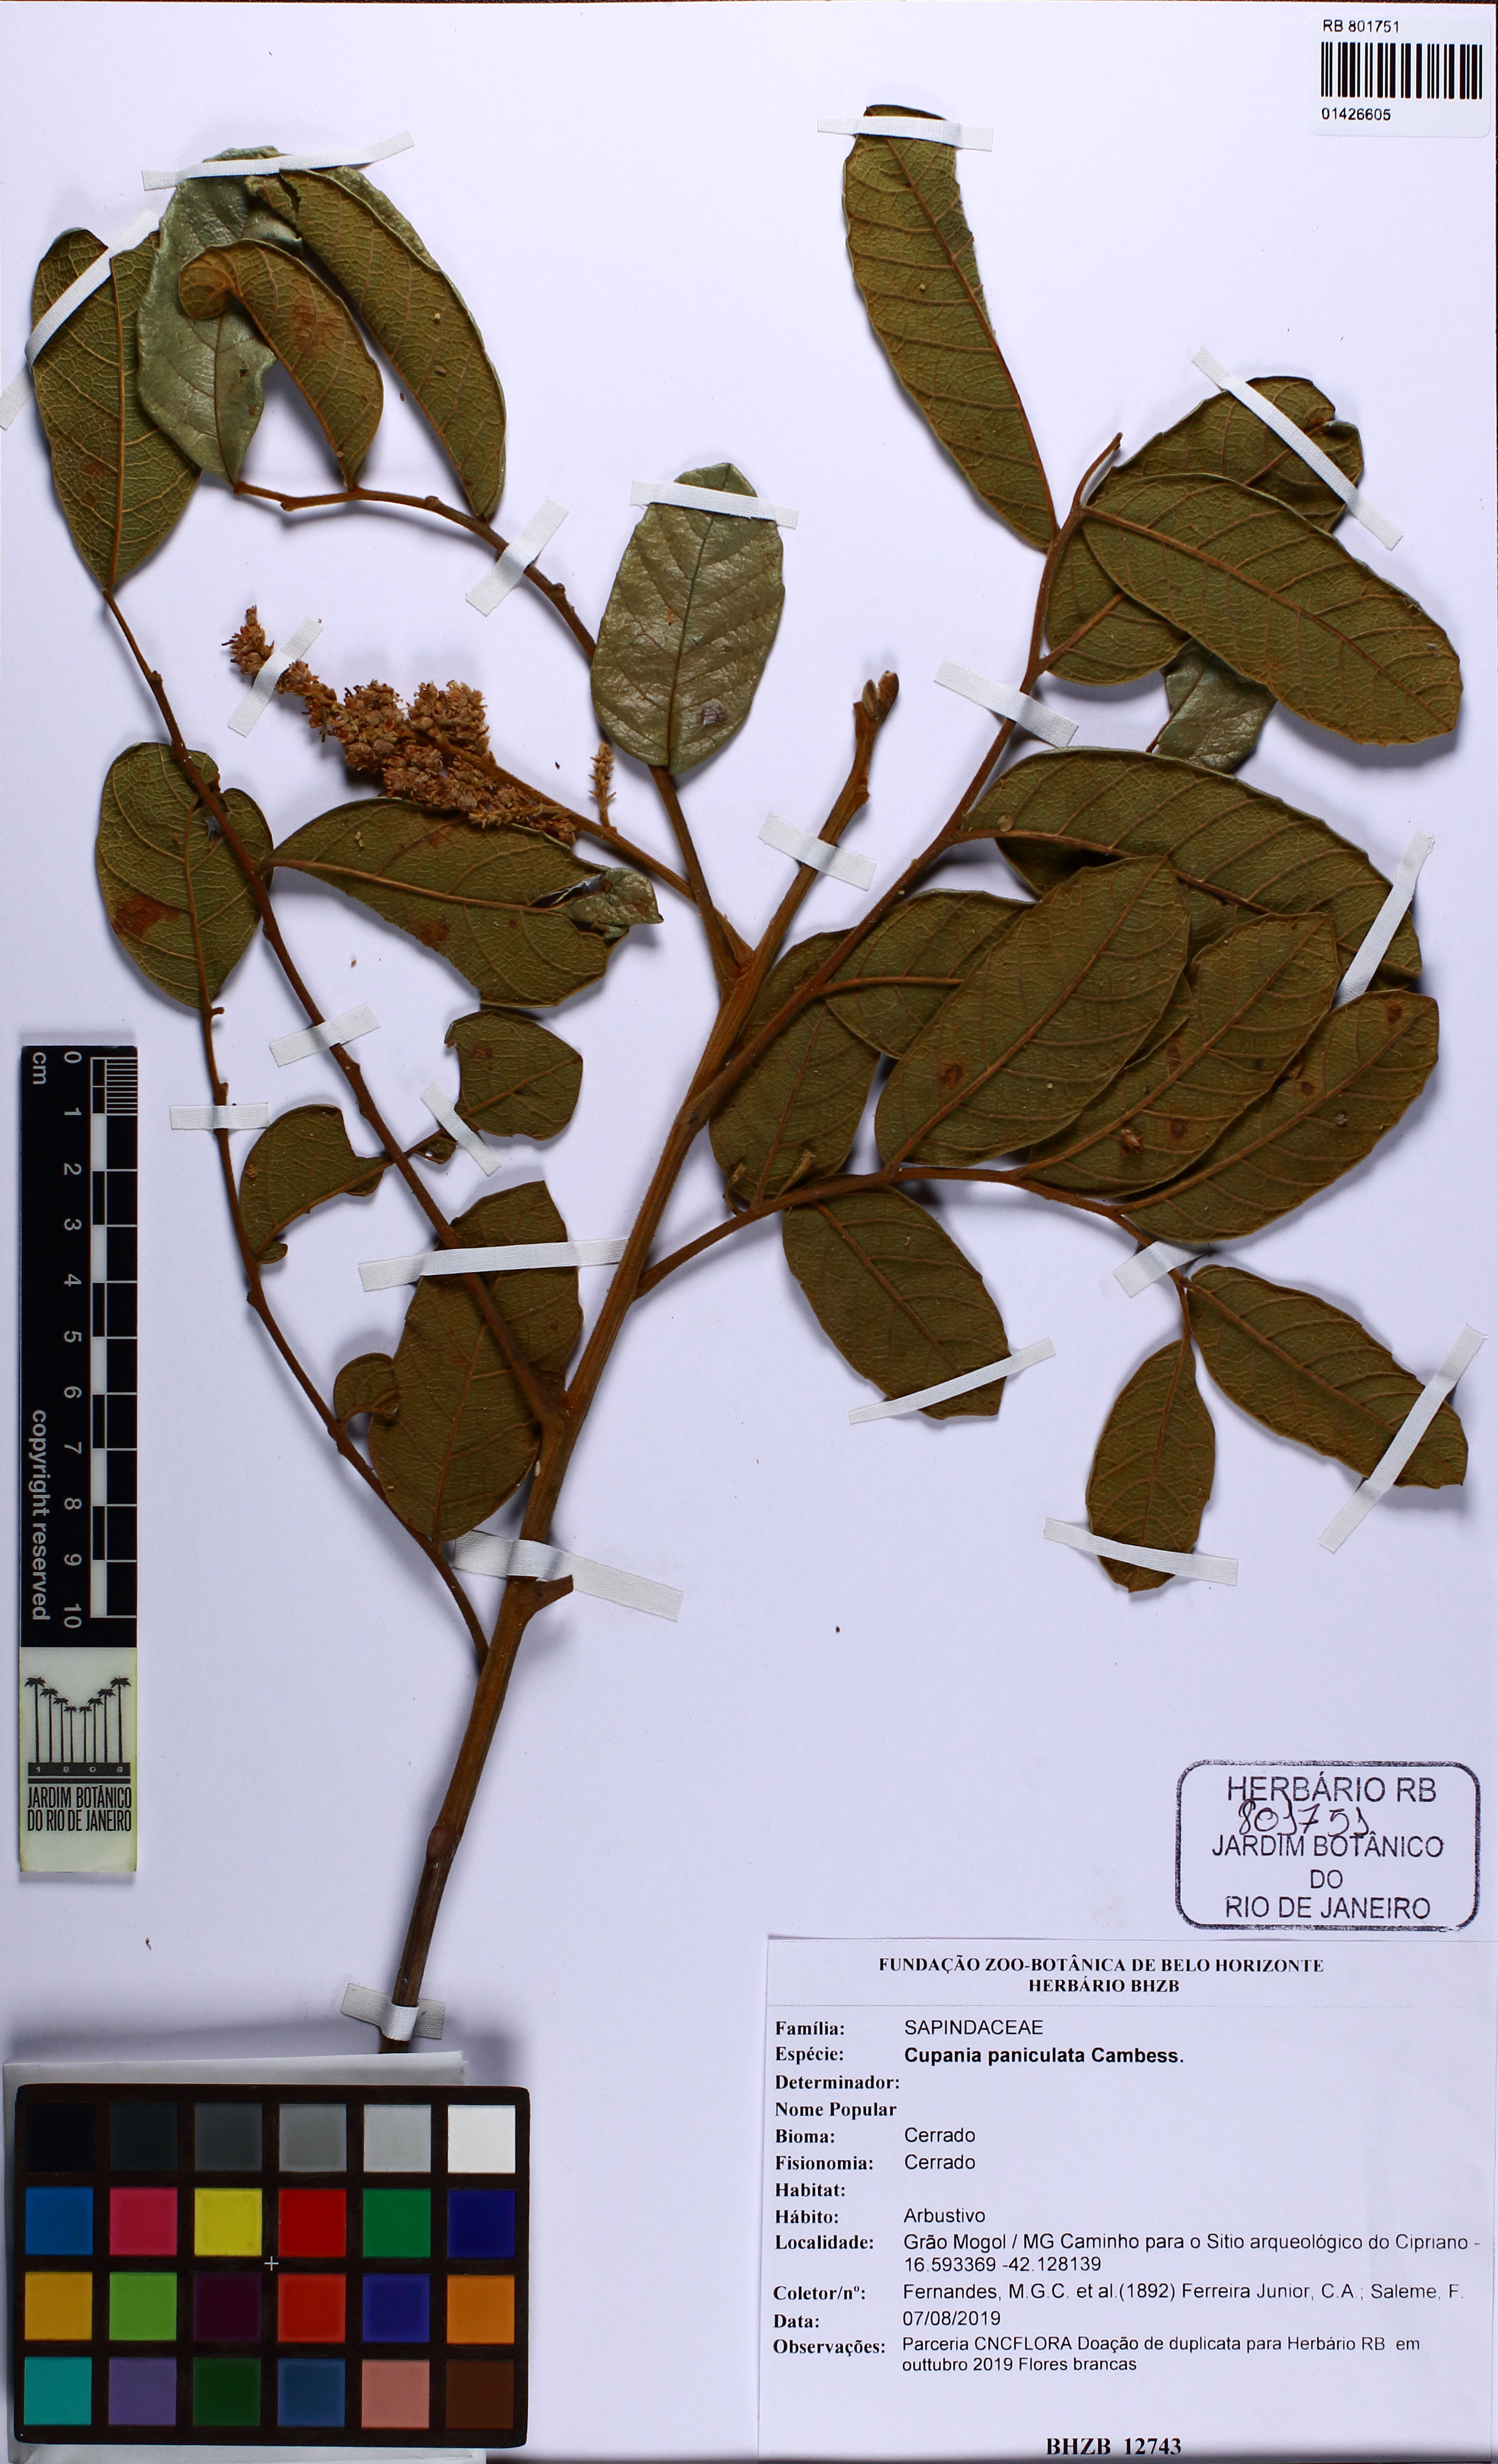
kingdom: Plantae
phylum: Tracheophyta
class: Magnoliopsida
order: Sapindales
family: Sapindaceae
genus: Cupania
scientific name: Cupania paniculata
